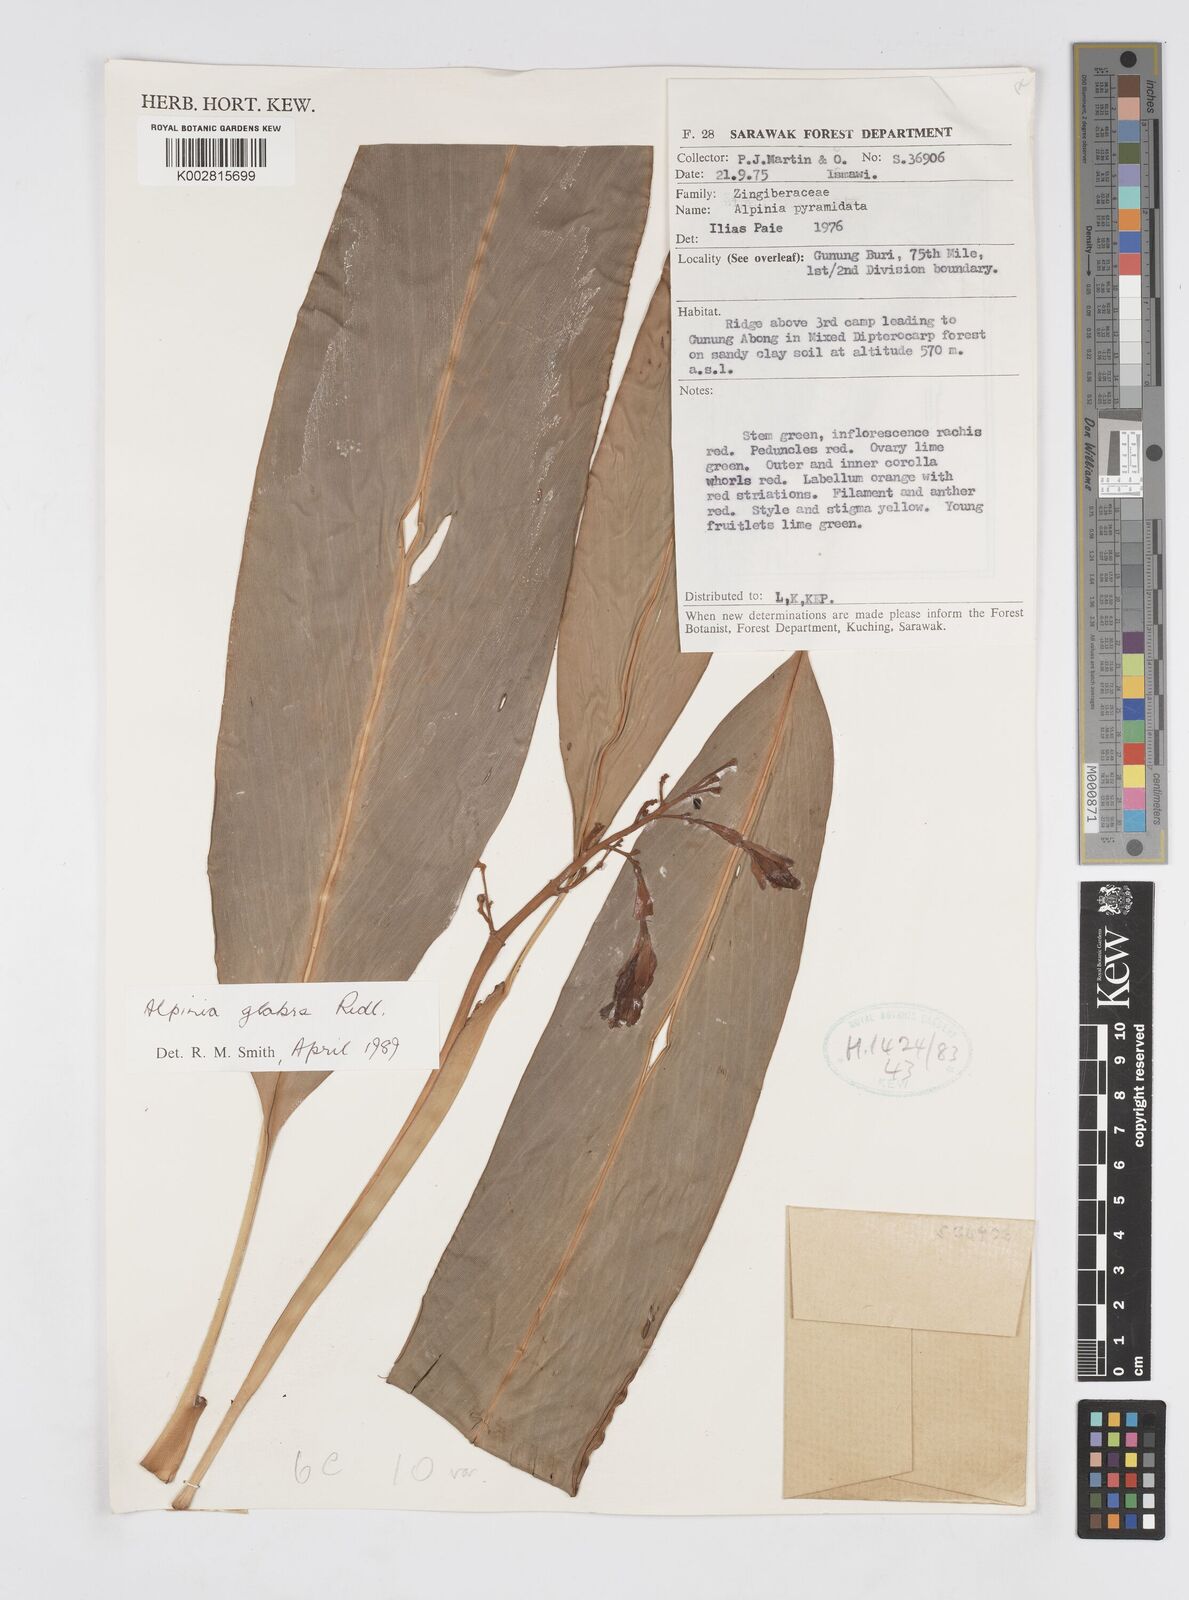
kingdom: Plantae
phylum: Tracheophyta
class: Liliopsida
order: Zingiberales
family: Zingiberaceae
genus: Alpinia
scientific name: Alpinia glabra
